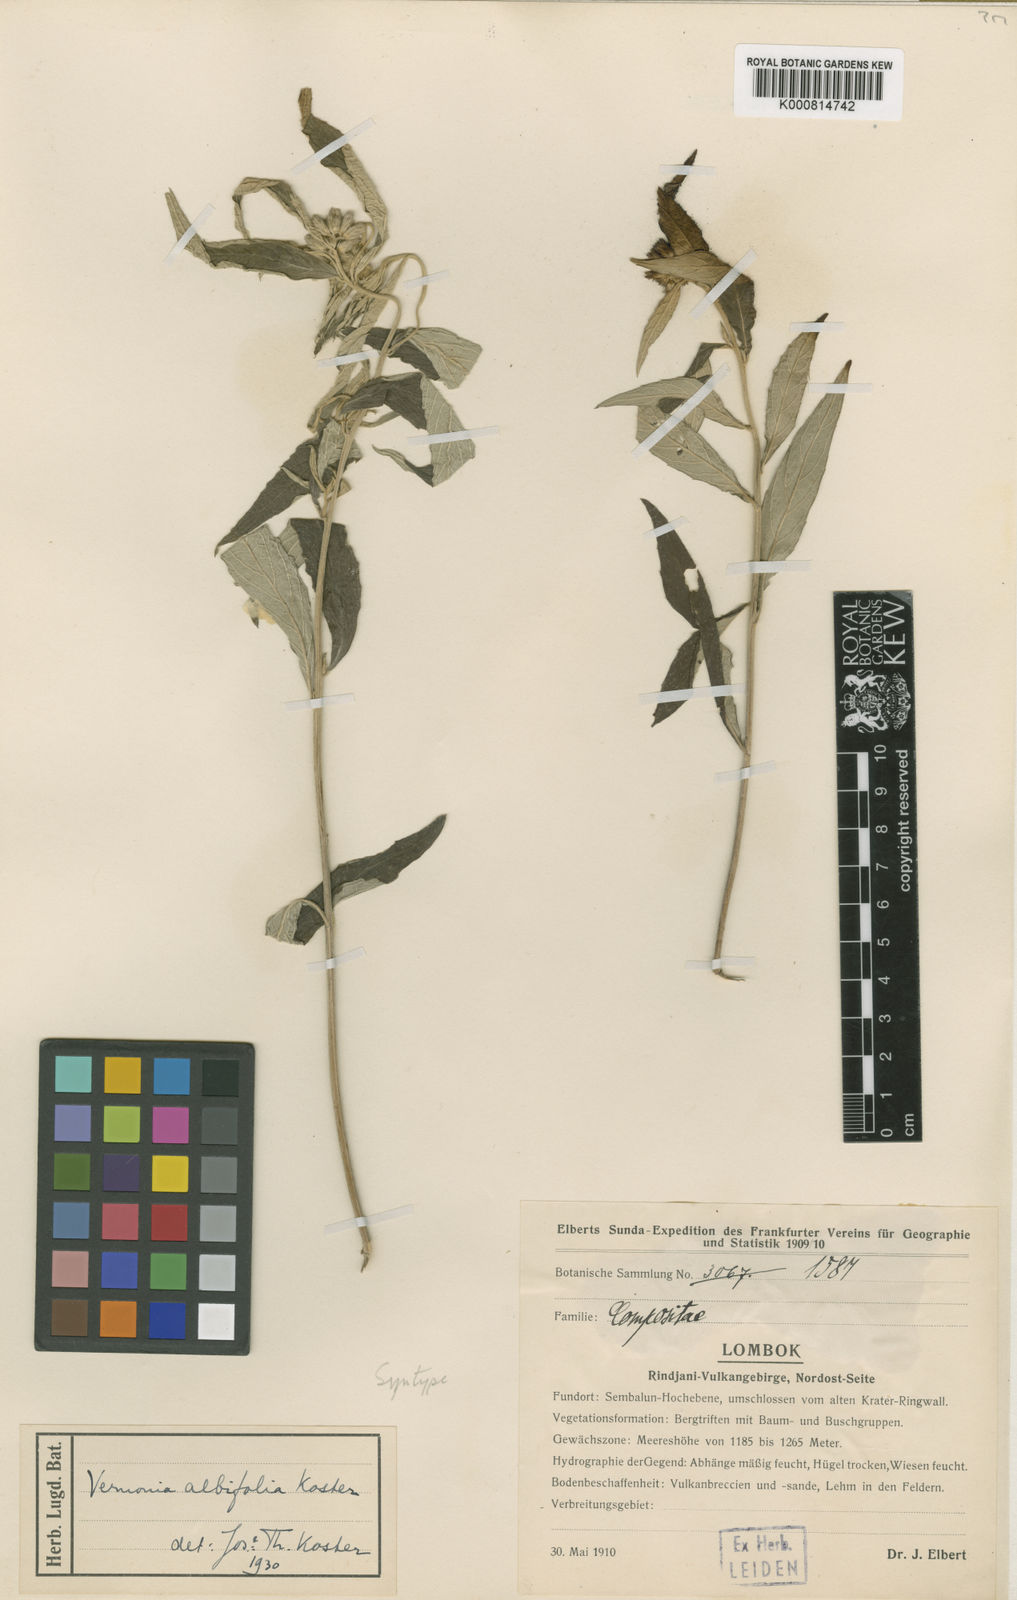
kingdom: Plantae
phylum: Tracheophyta
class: Magnoliopsida
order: Asterales
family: Asteraceae
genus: Vernonia
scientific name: Vernonia albifolia
